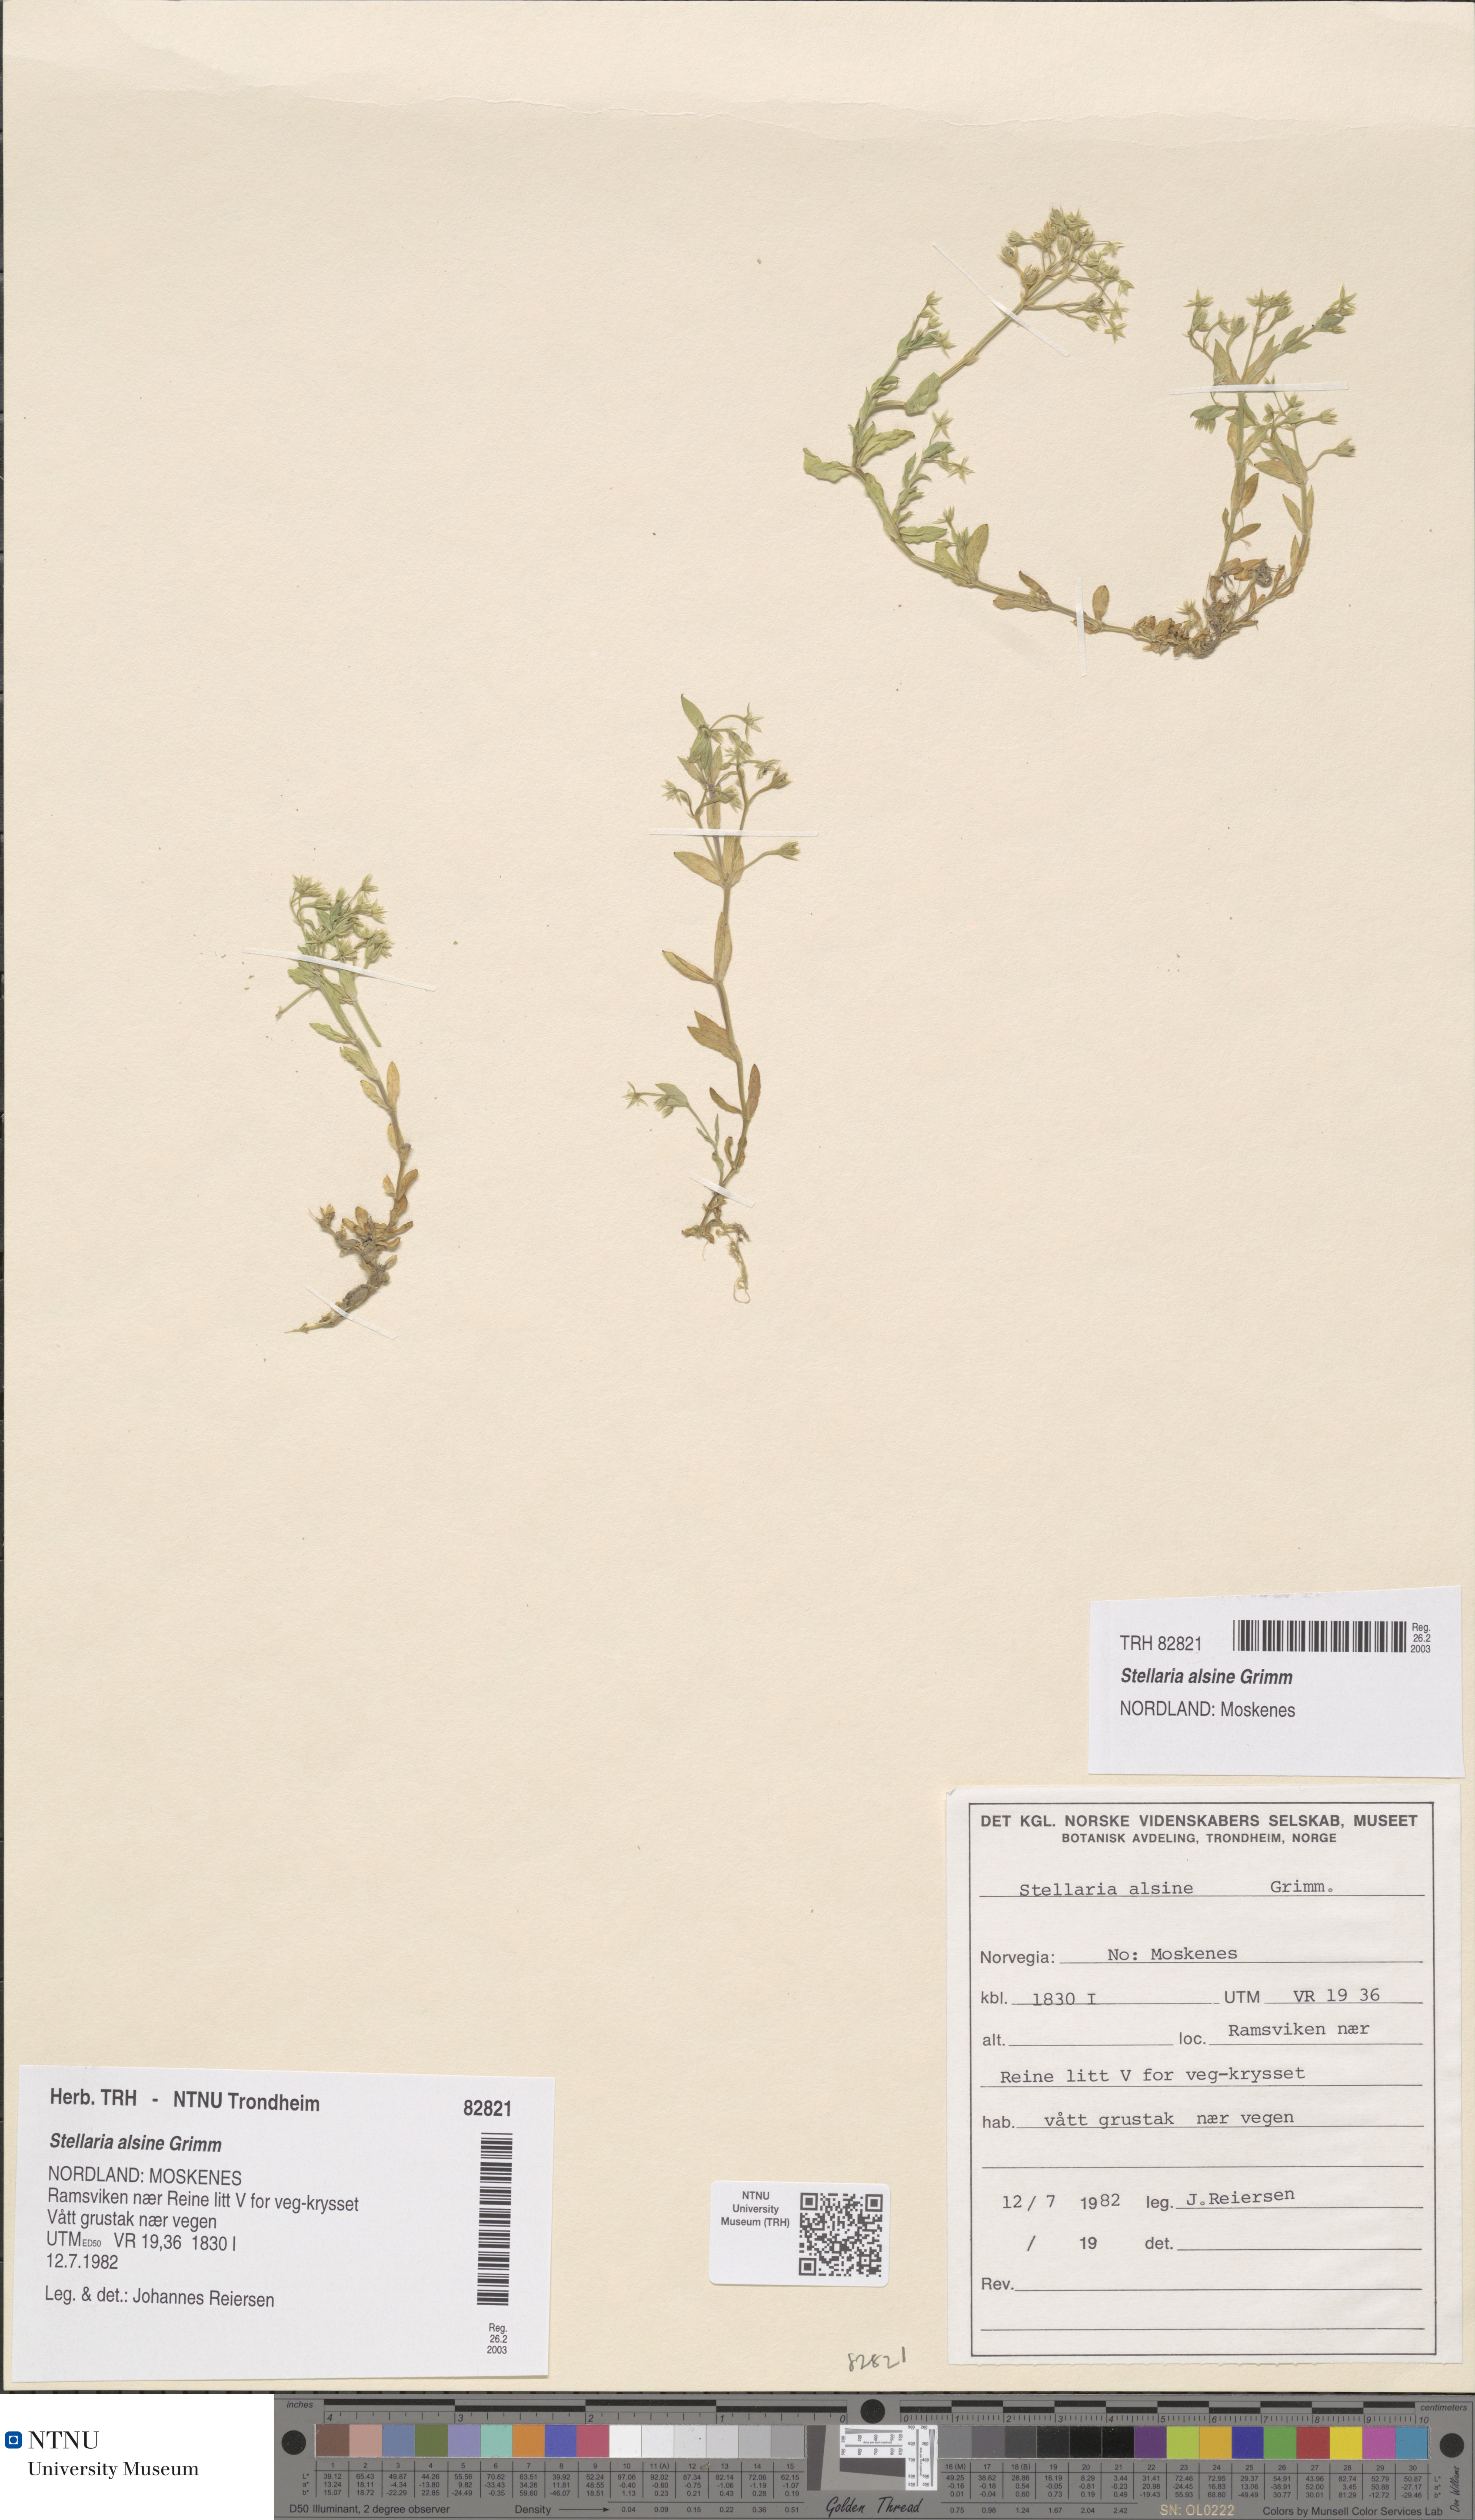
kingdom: Plantae
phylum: Tracheophyta
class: Magnoliopsida
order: Caryophyllales
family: Caryophyllaceae
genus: Stellaria
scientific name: Stellaria alsine
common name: Bog stitchwort
